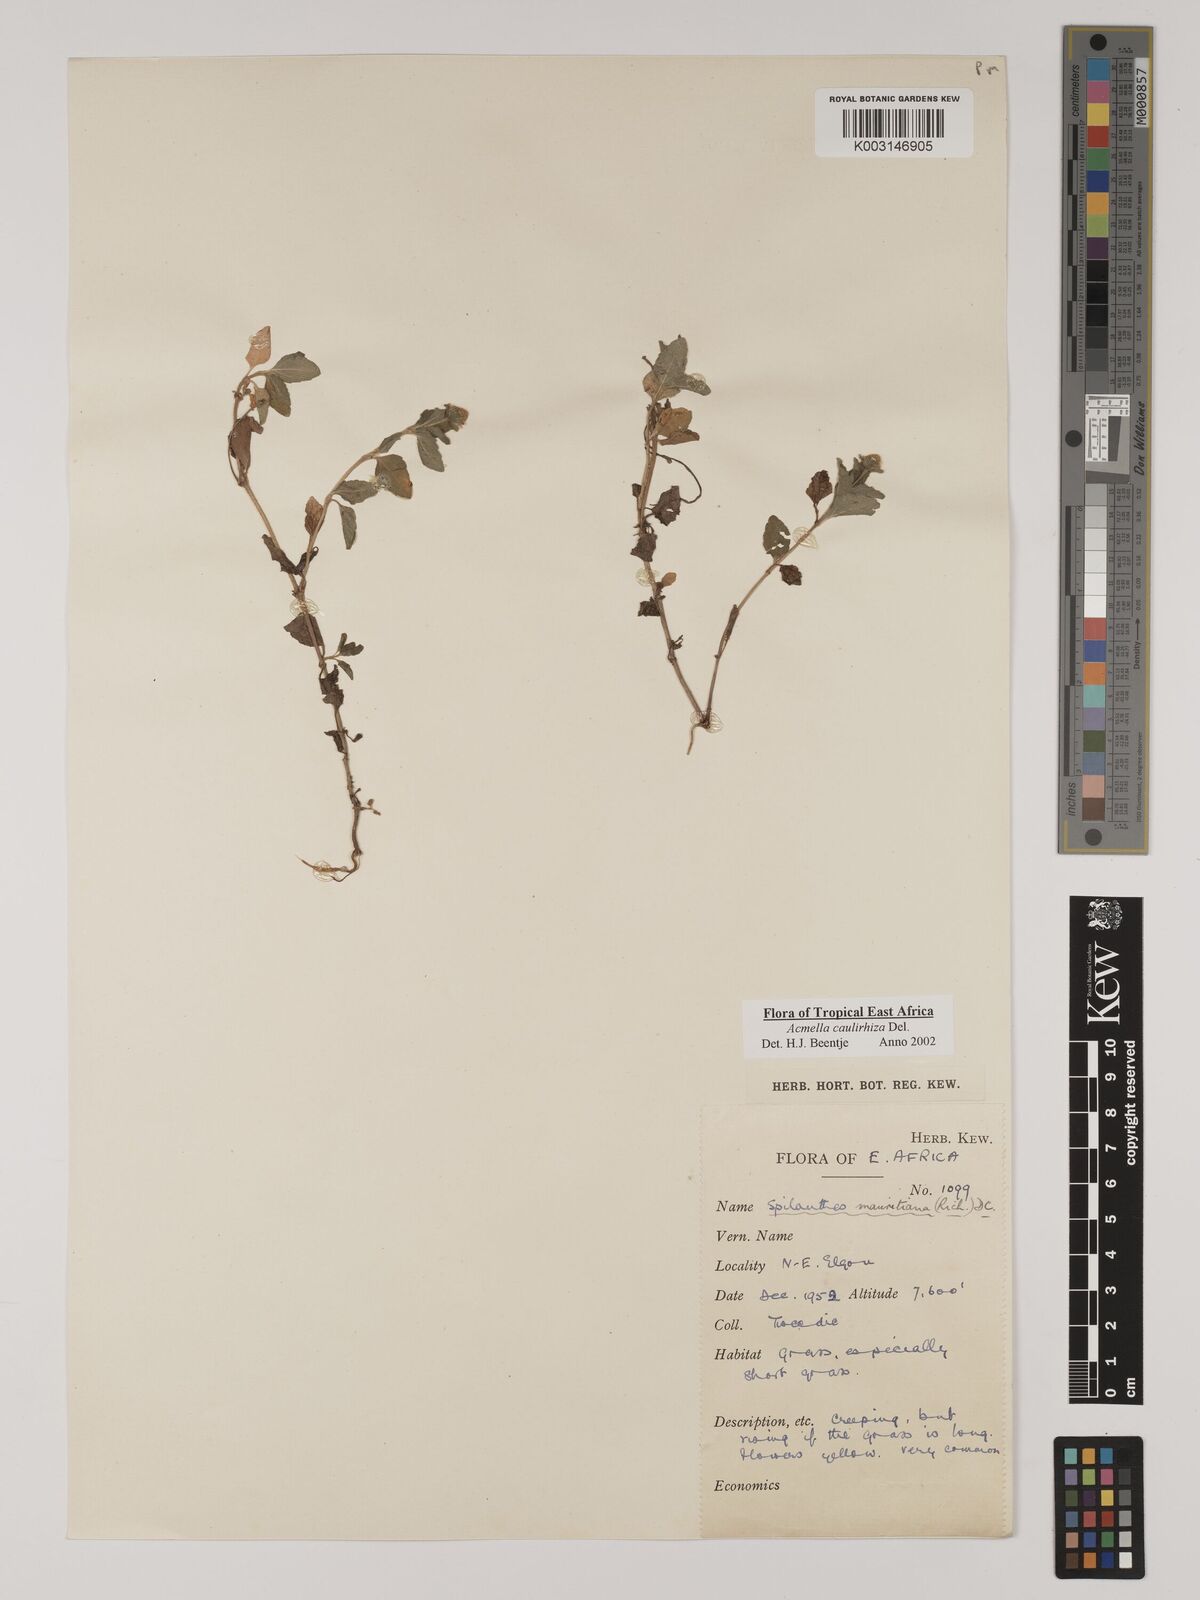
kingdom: Plantae
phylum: Tracheophyta
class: Magnoliopsida
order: Asterales
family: Asteraceae
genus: Acmella
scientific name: Acmella caulirhiza
